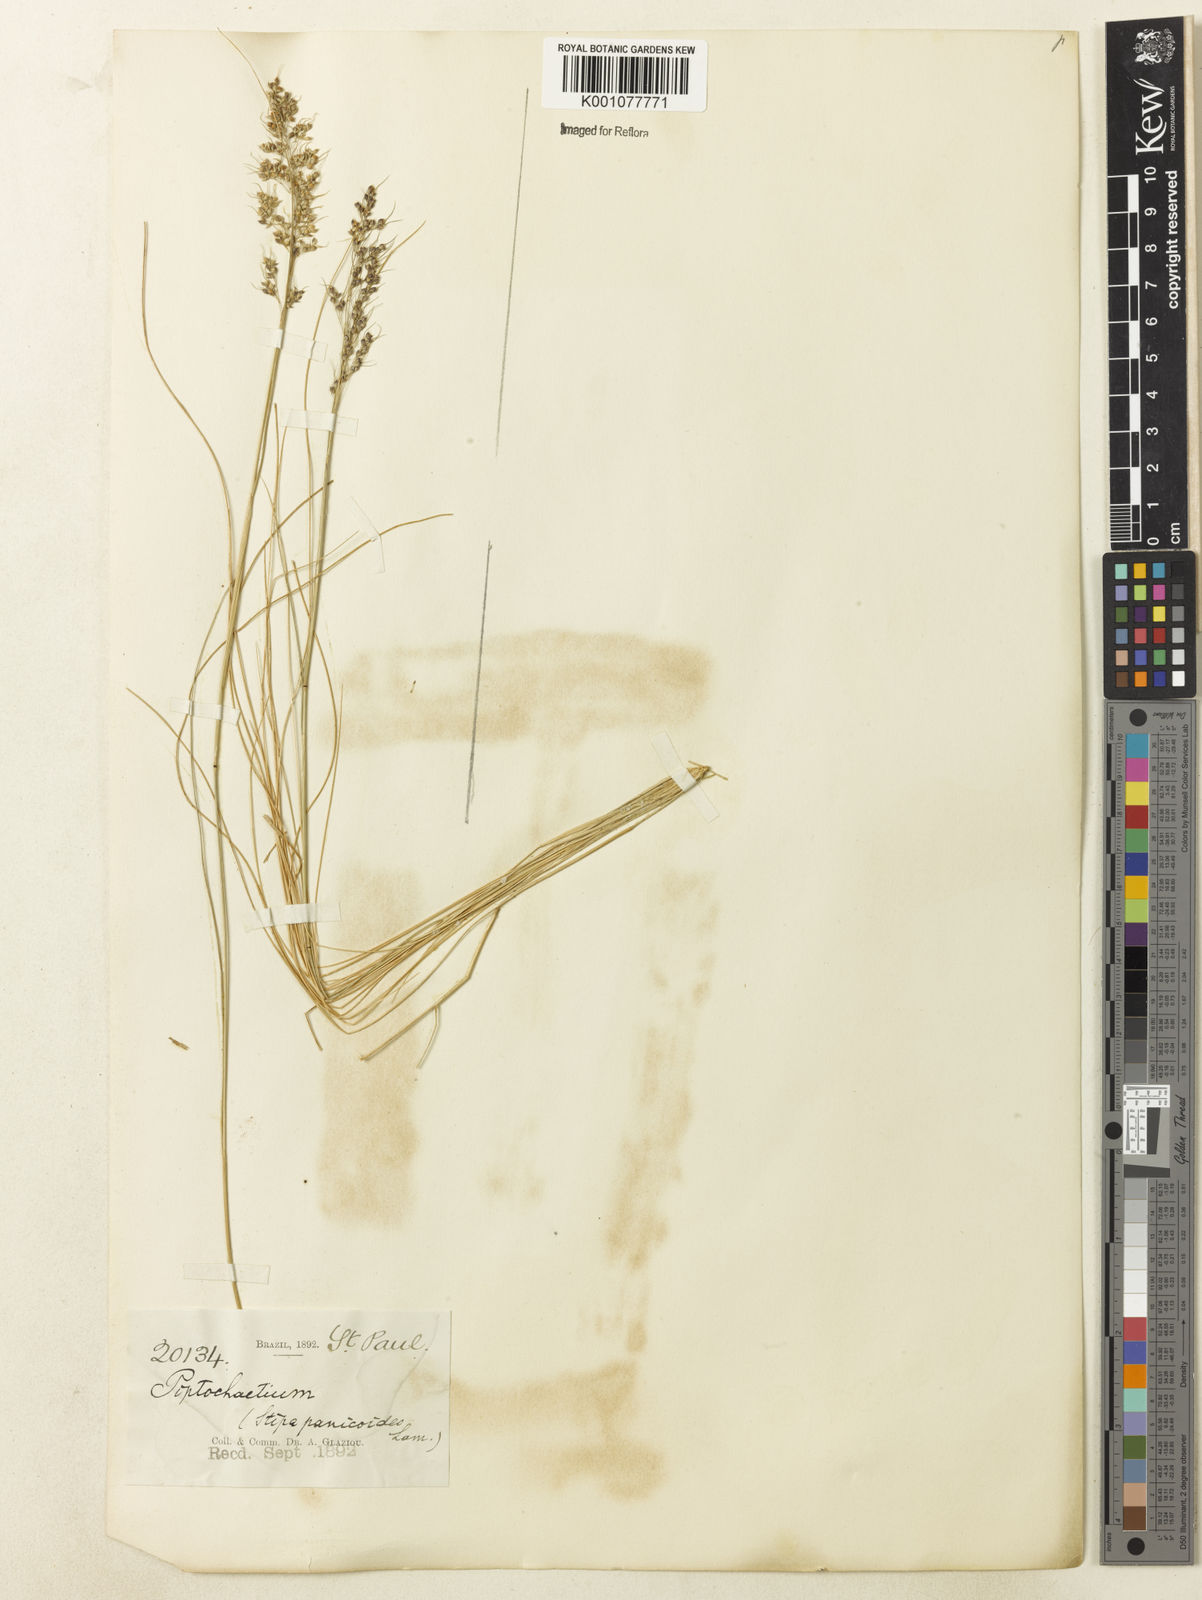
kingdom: Plantae
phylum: Tracheophyta
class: Liliopsida
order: Poales
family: Poaceae
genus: Piptochaetium
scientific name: Piptochaetium montevidense
